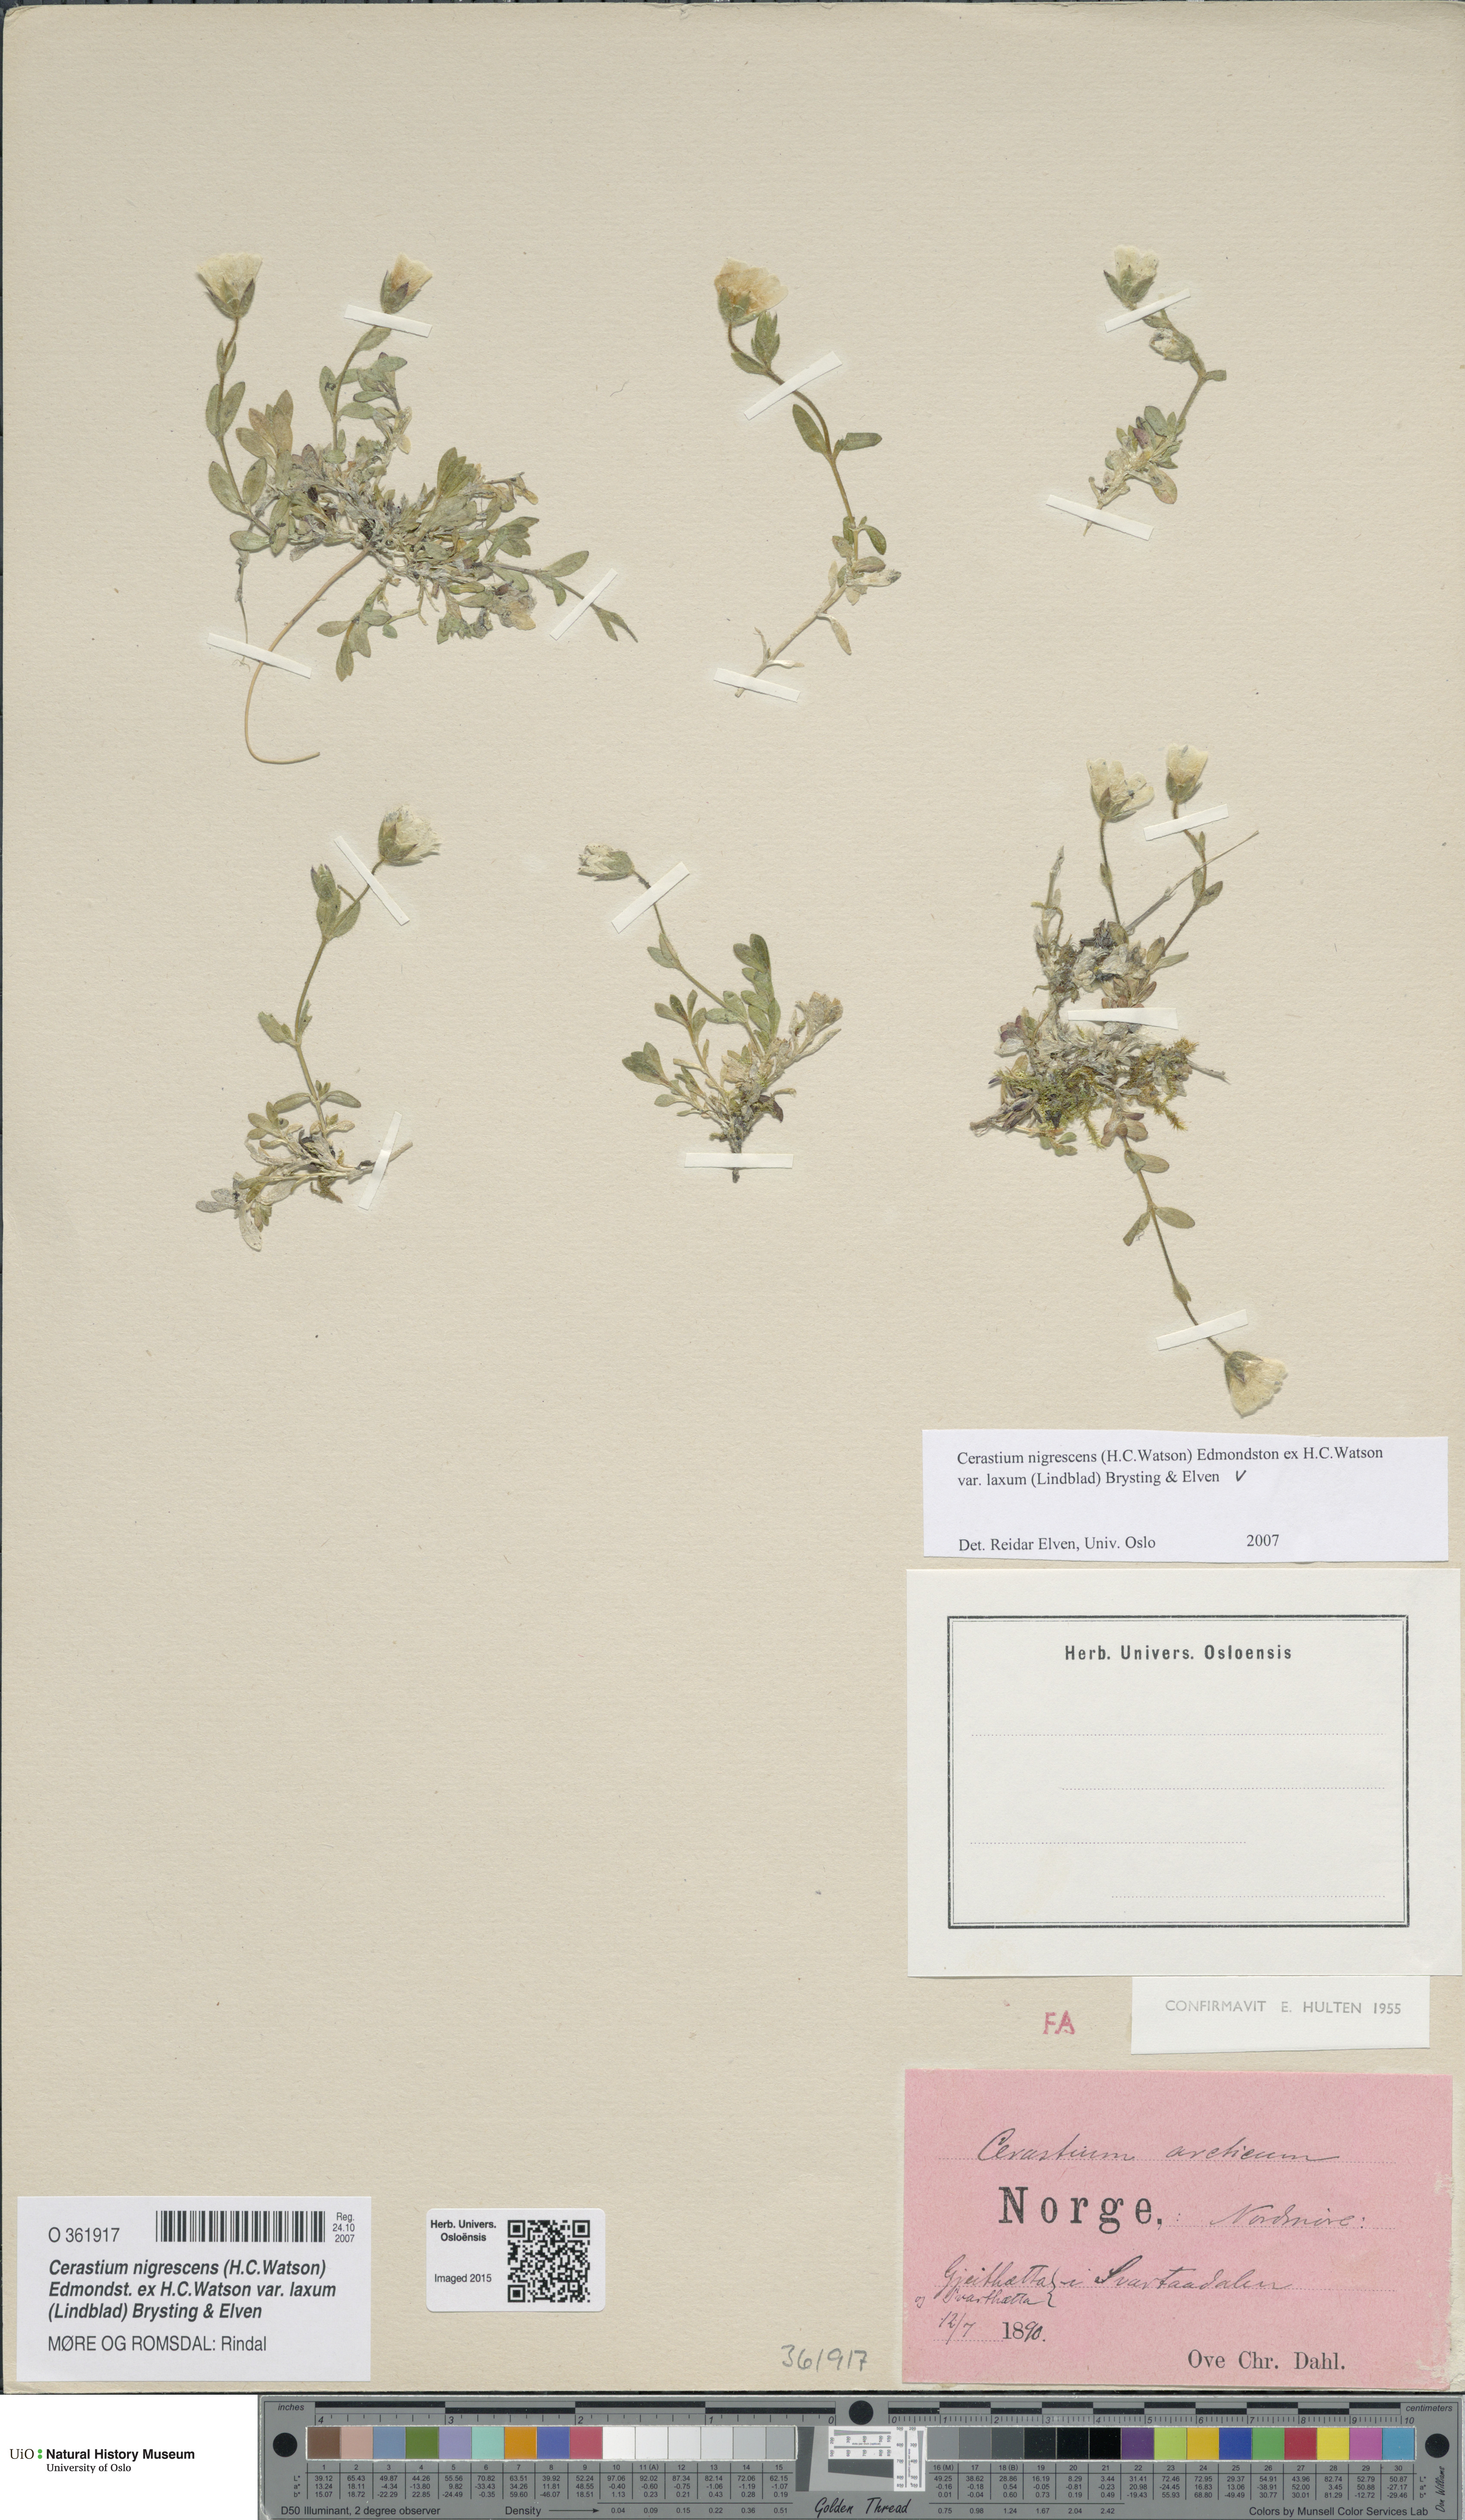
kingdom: Plantae
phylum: Tracheophyta
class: Magnoliopsida
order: Caryophyllales
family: Caryophyllaceae
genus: Cerastium
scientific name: Cerastium nigrescens
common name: Shetland mouse-ear
